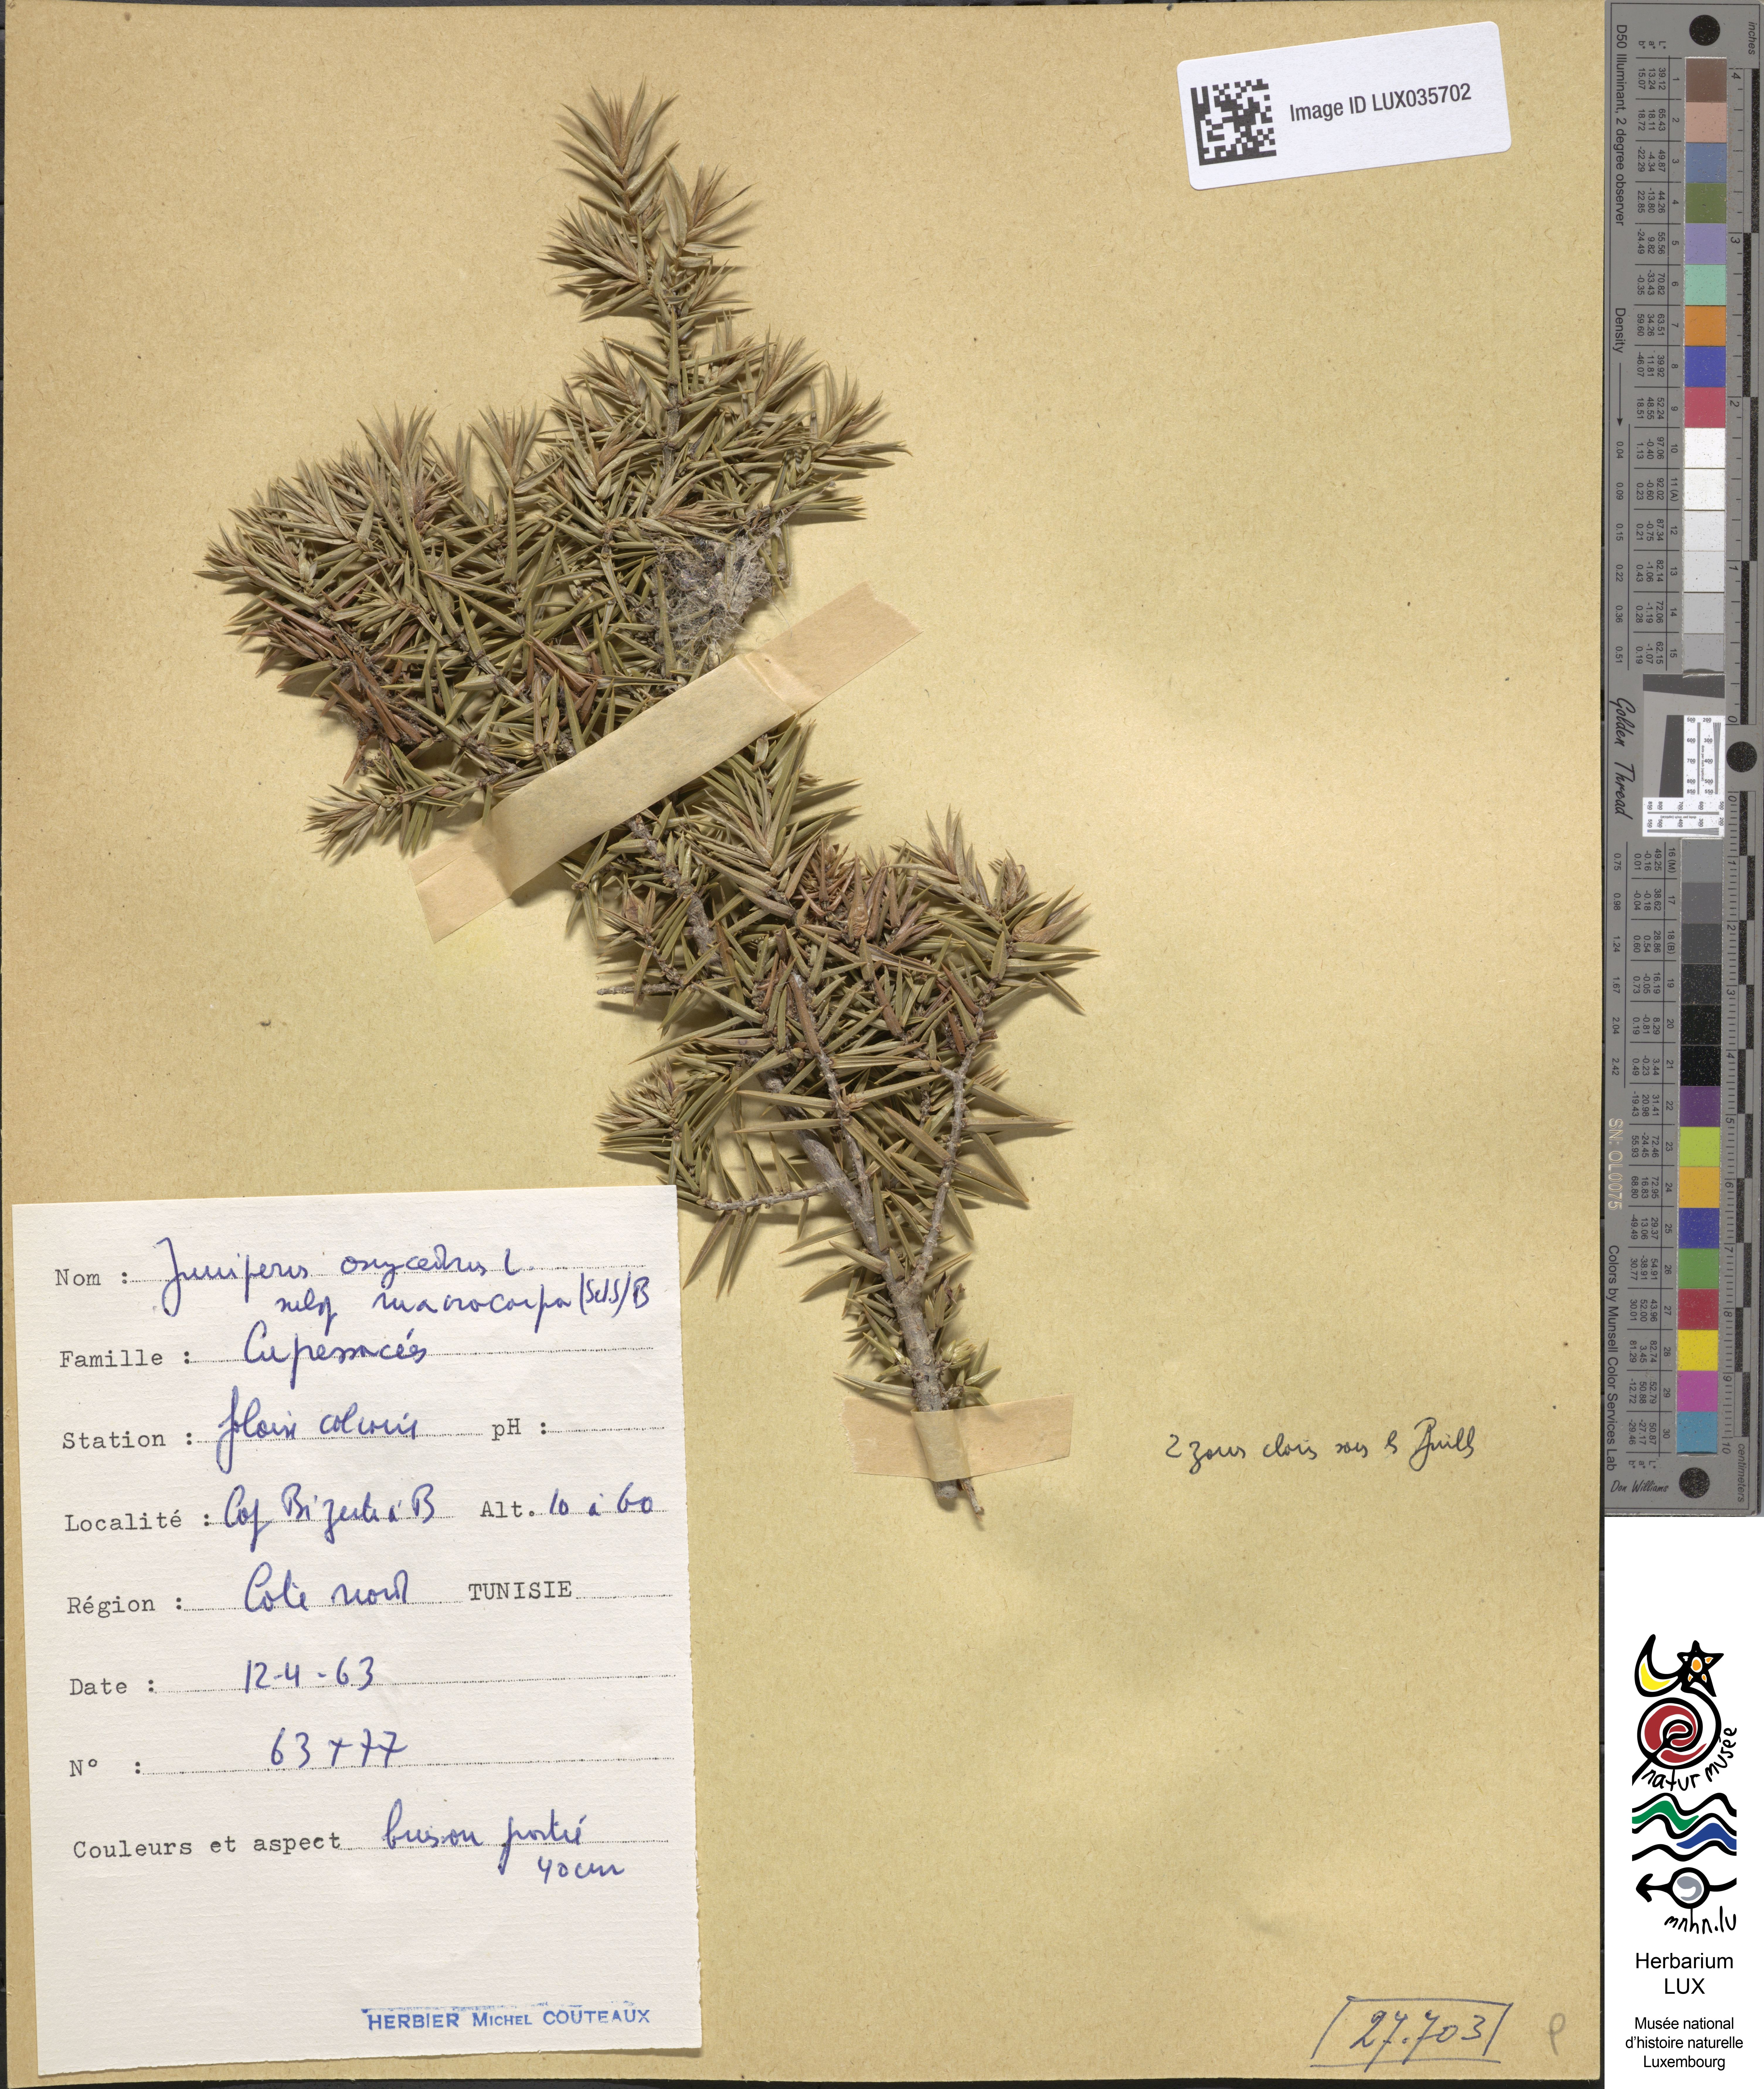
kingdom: Plantae
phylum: Tracheophyta
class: Pinopsida
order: Pinales
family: Cupressaceae
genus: Juniperus
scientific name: Juniperus oxycedrus
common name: Prickly juniper
